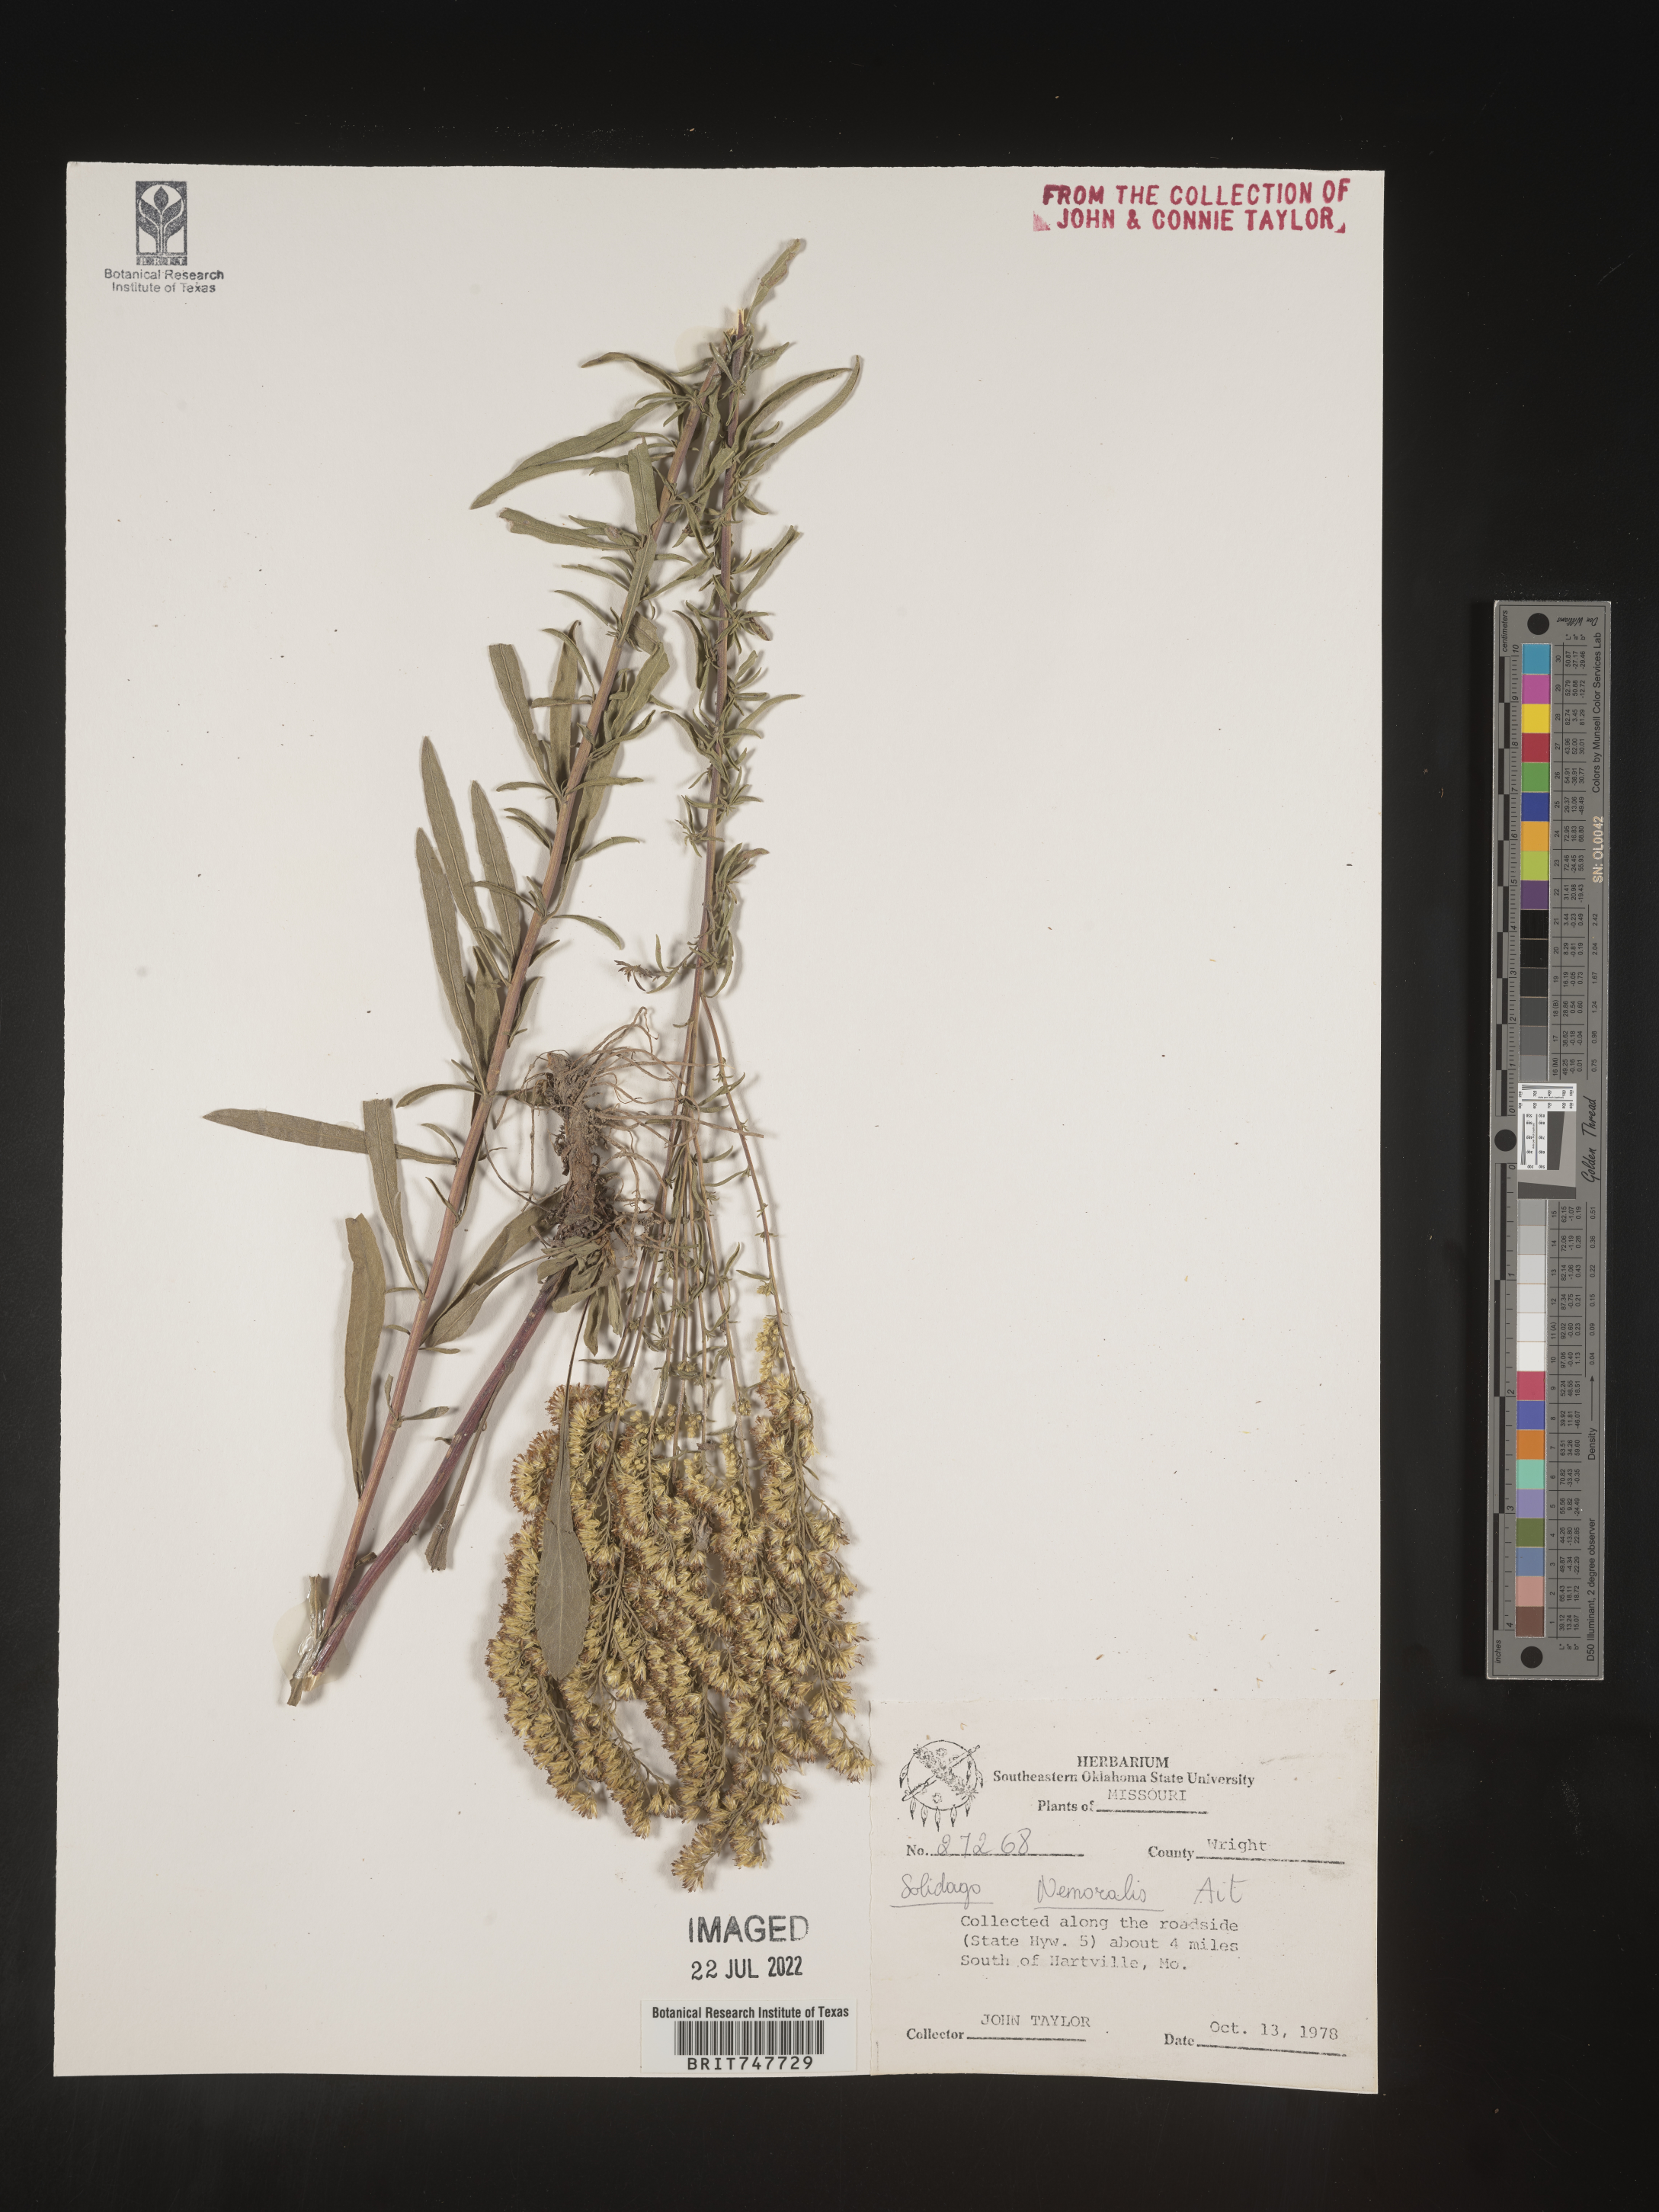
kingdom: Plantae
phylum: Tracheophyta
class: Magnoliopsida
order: Asterales
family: Asteraceae
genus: Solidago
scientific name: Solidago nemoralis
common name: Grey goldenrod
